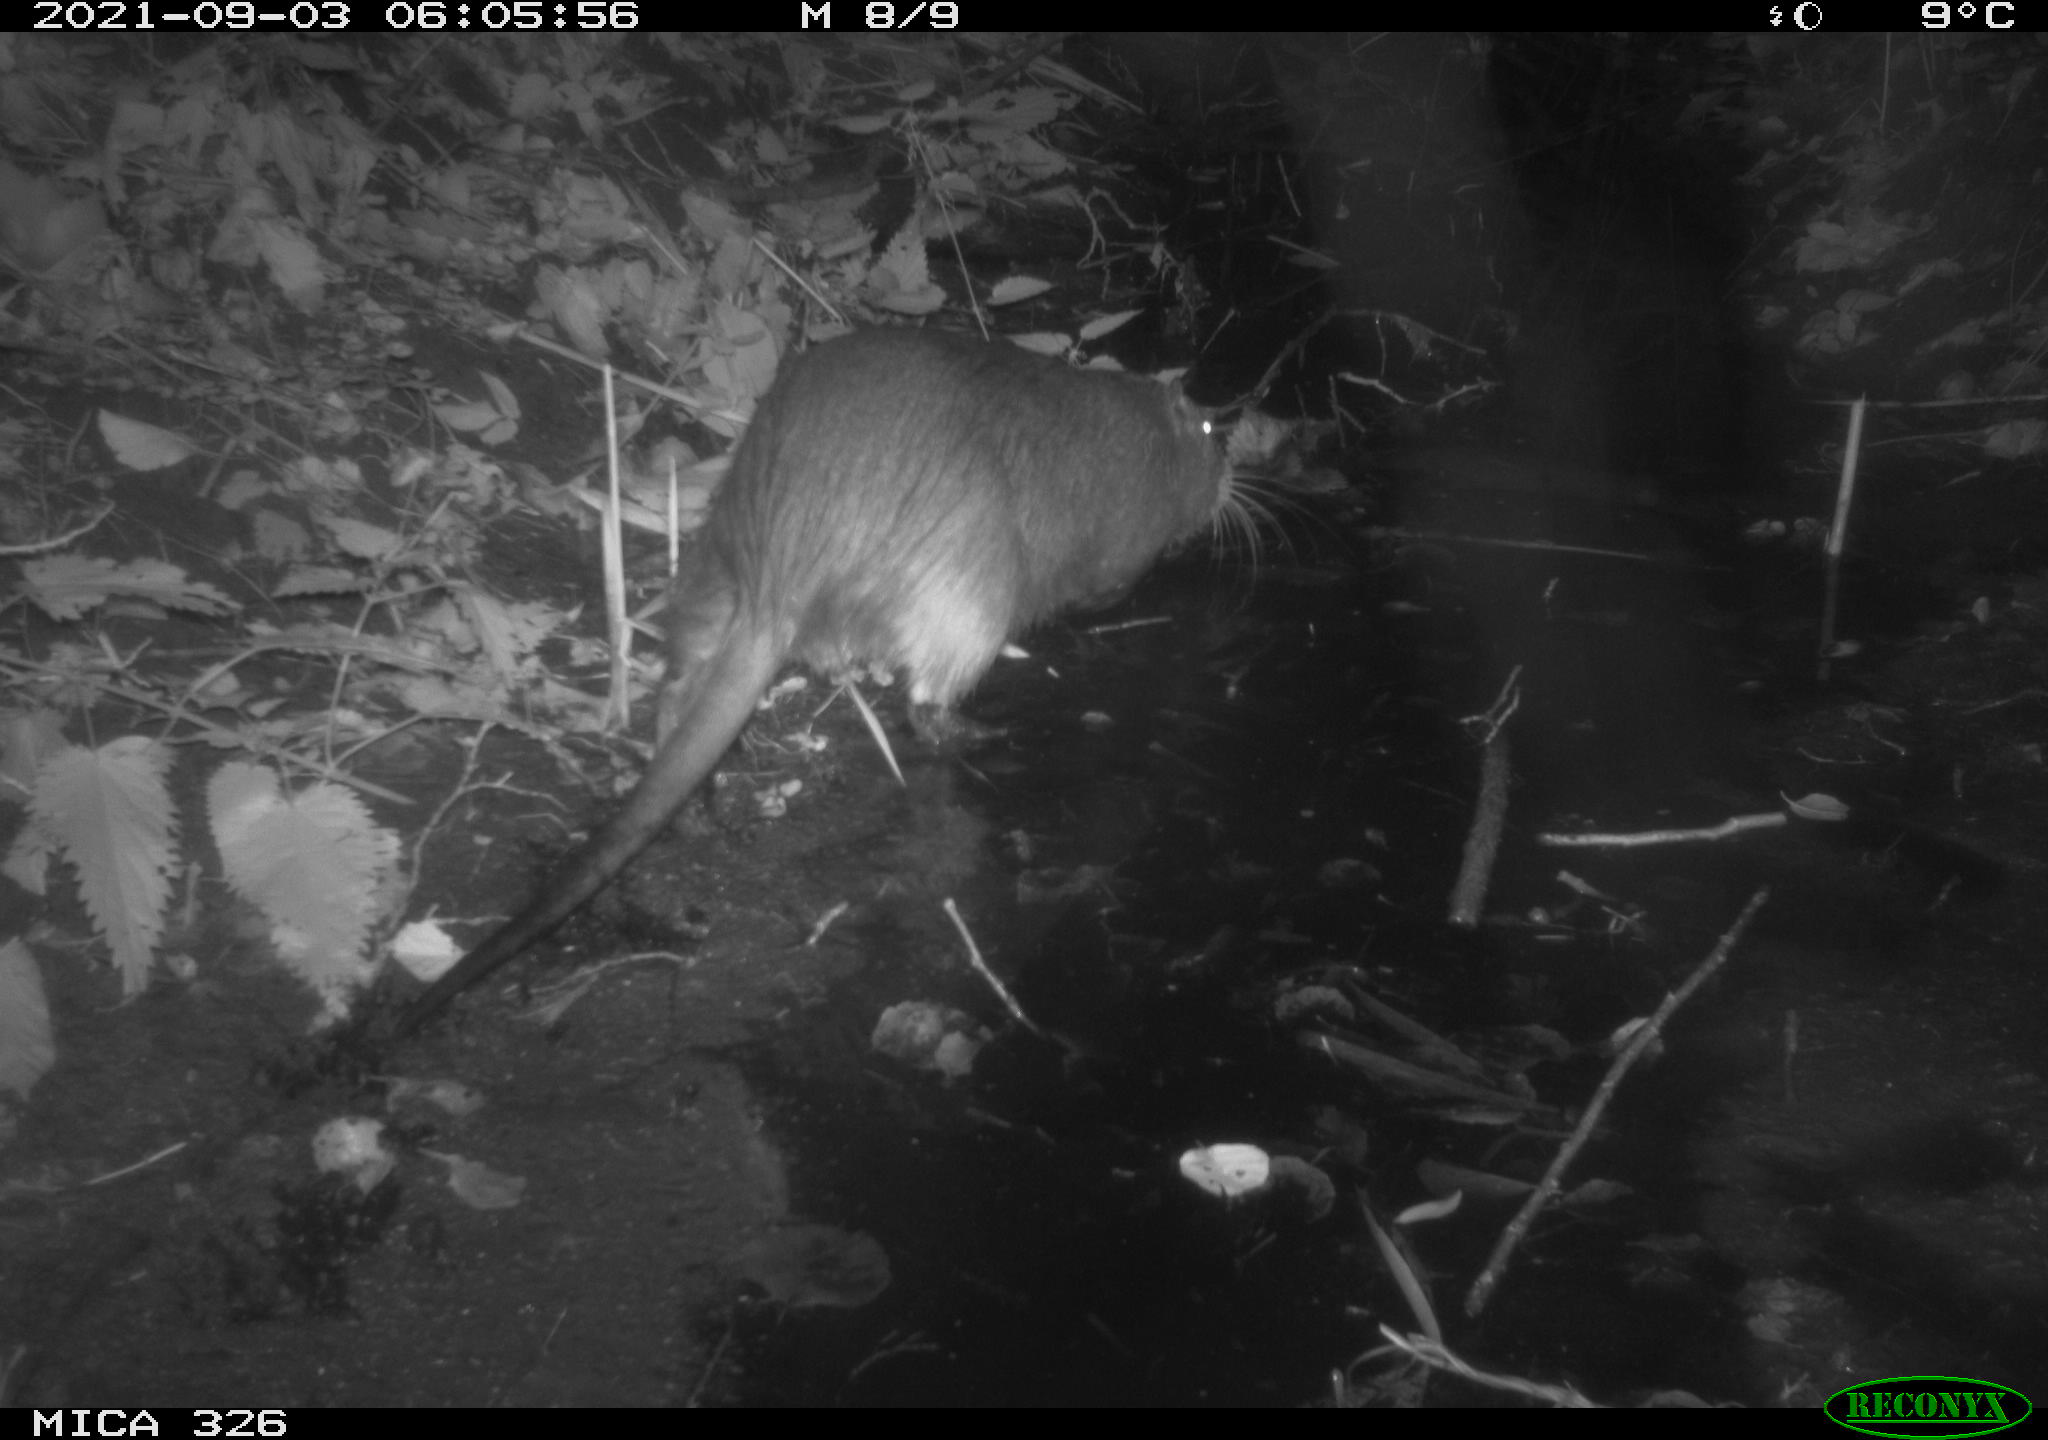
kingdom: Animalia
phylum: Chordata
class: Mammalia
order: Rodentia
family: Myocastoridae
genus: Myocastor
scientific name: Myocastor coypus
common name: Coypu
